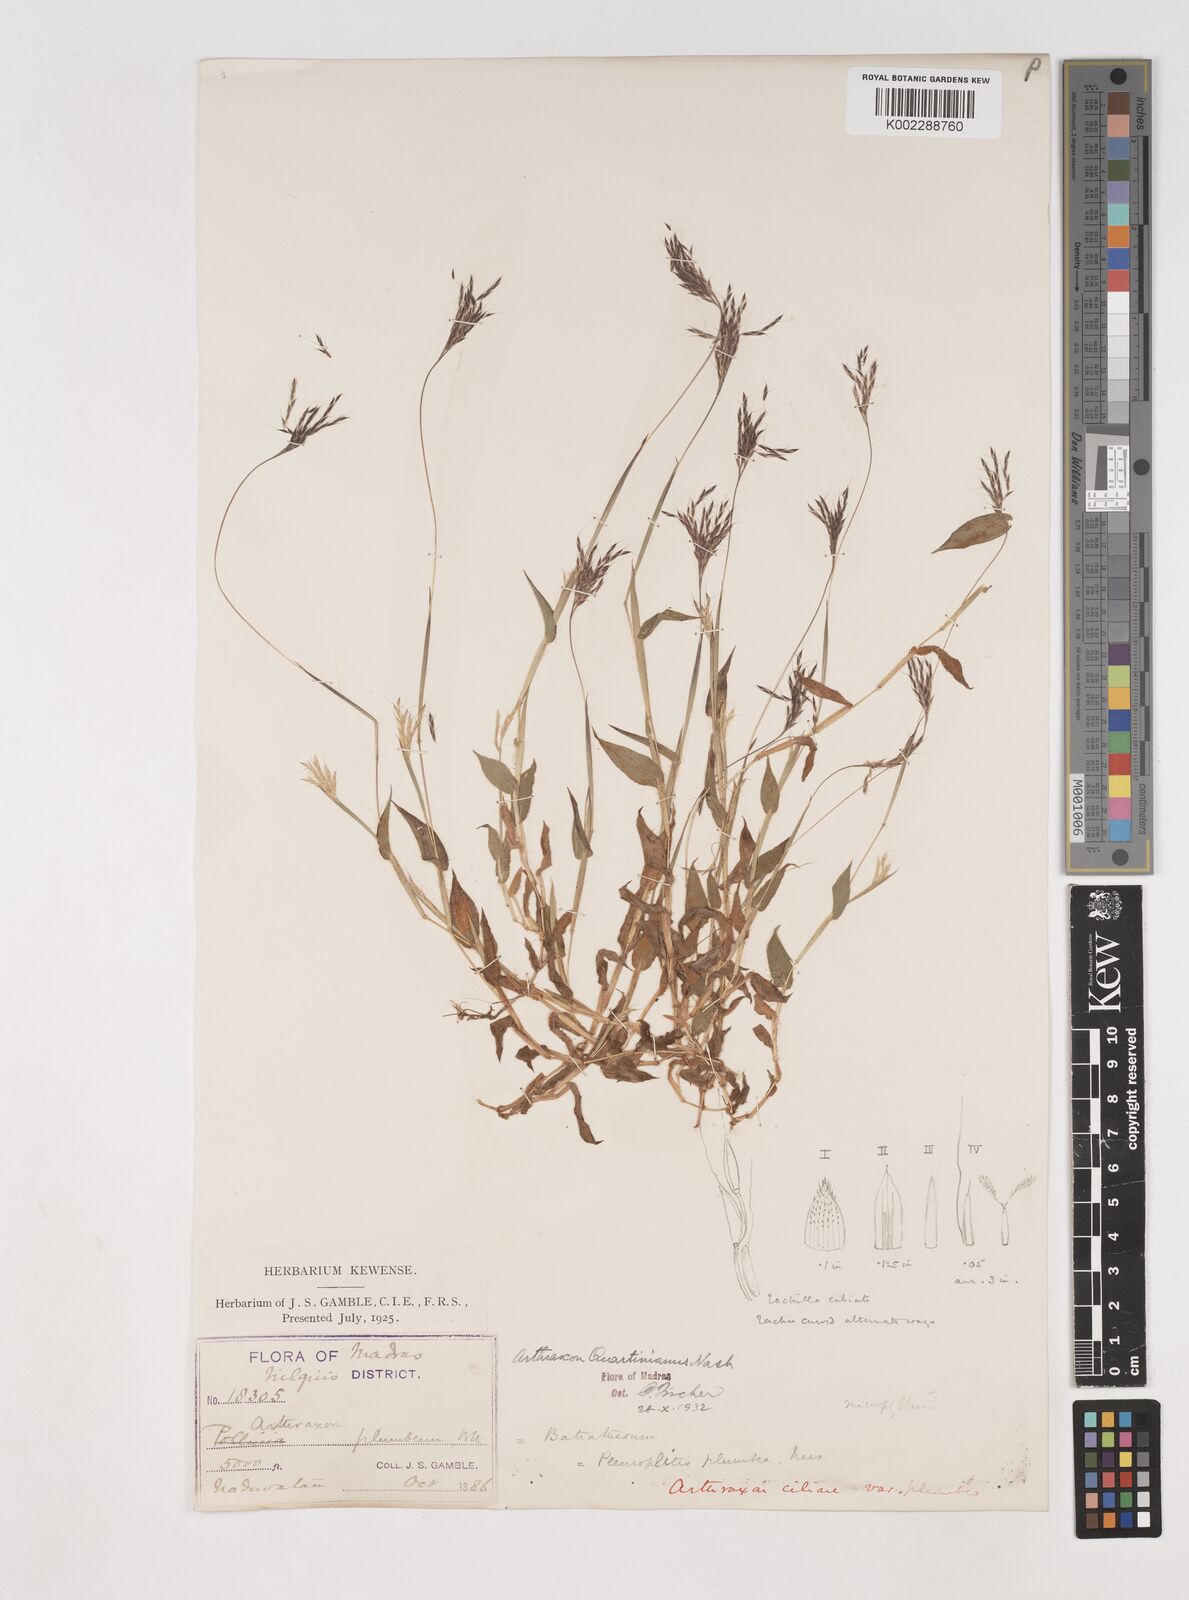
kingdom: Plantae
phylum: Tracheophyta
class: Liliopsida
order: Poales
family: Poaceae
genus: Arthraxon
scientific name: Arthraxon hispidus
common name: Small carpgrass
